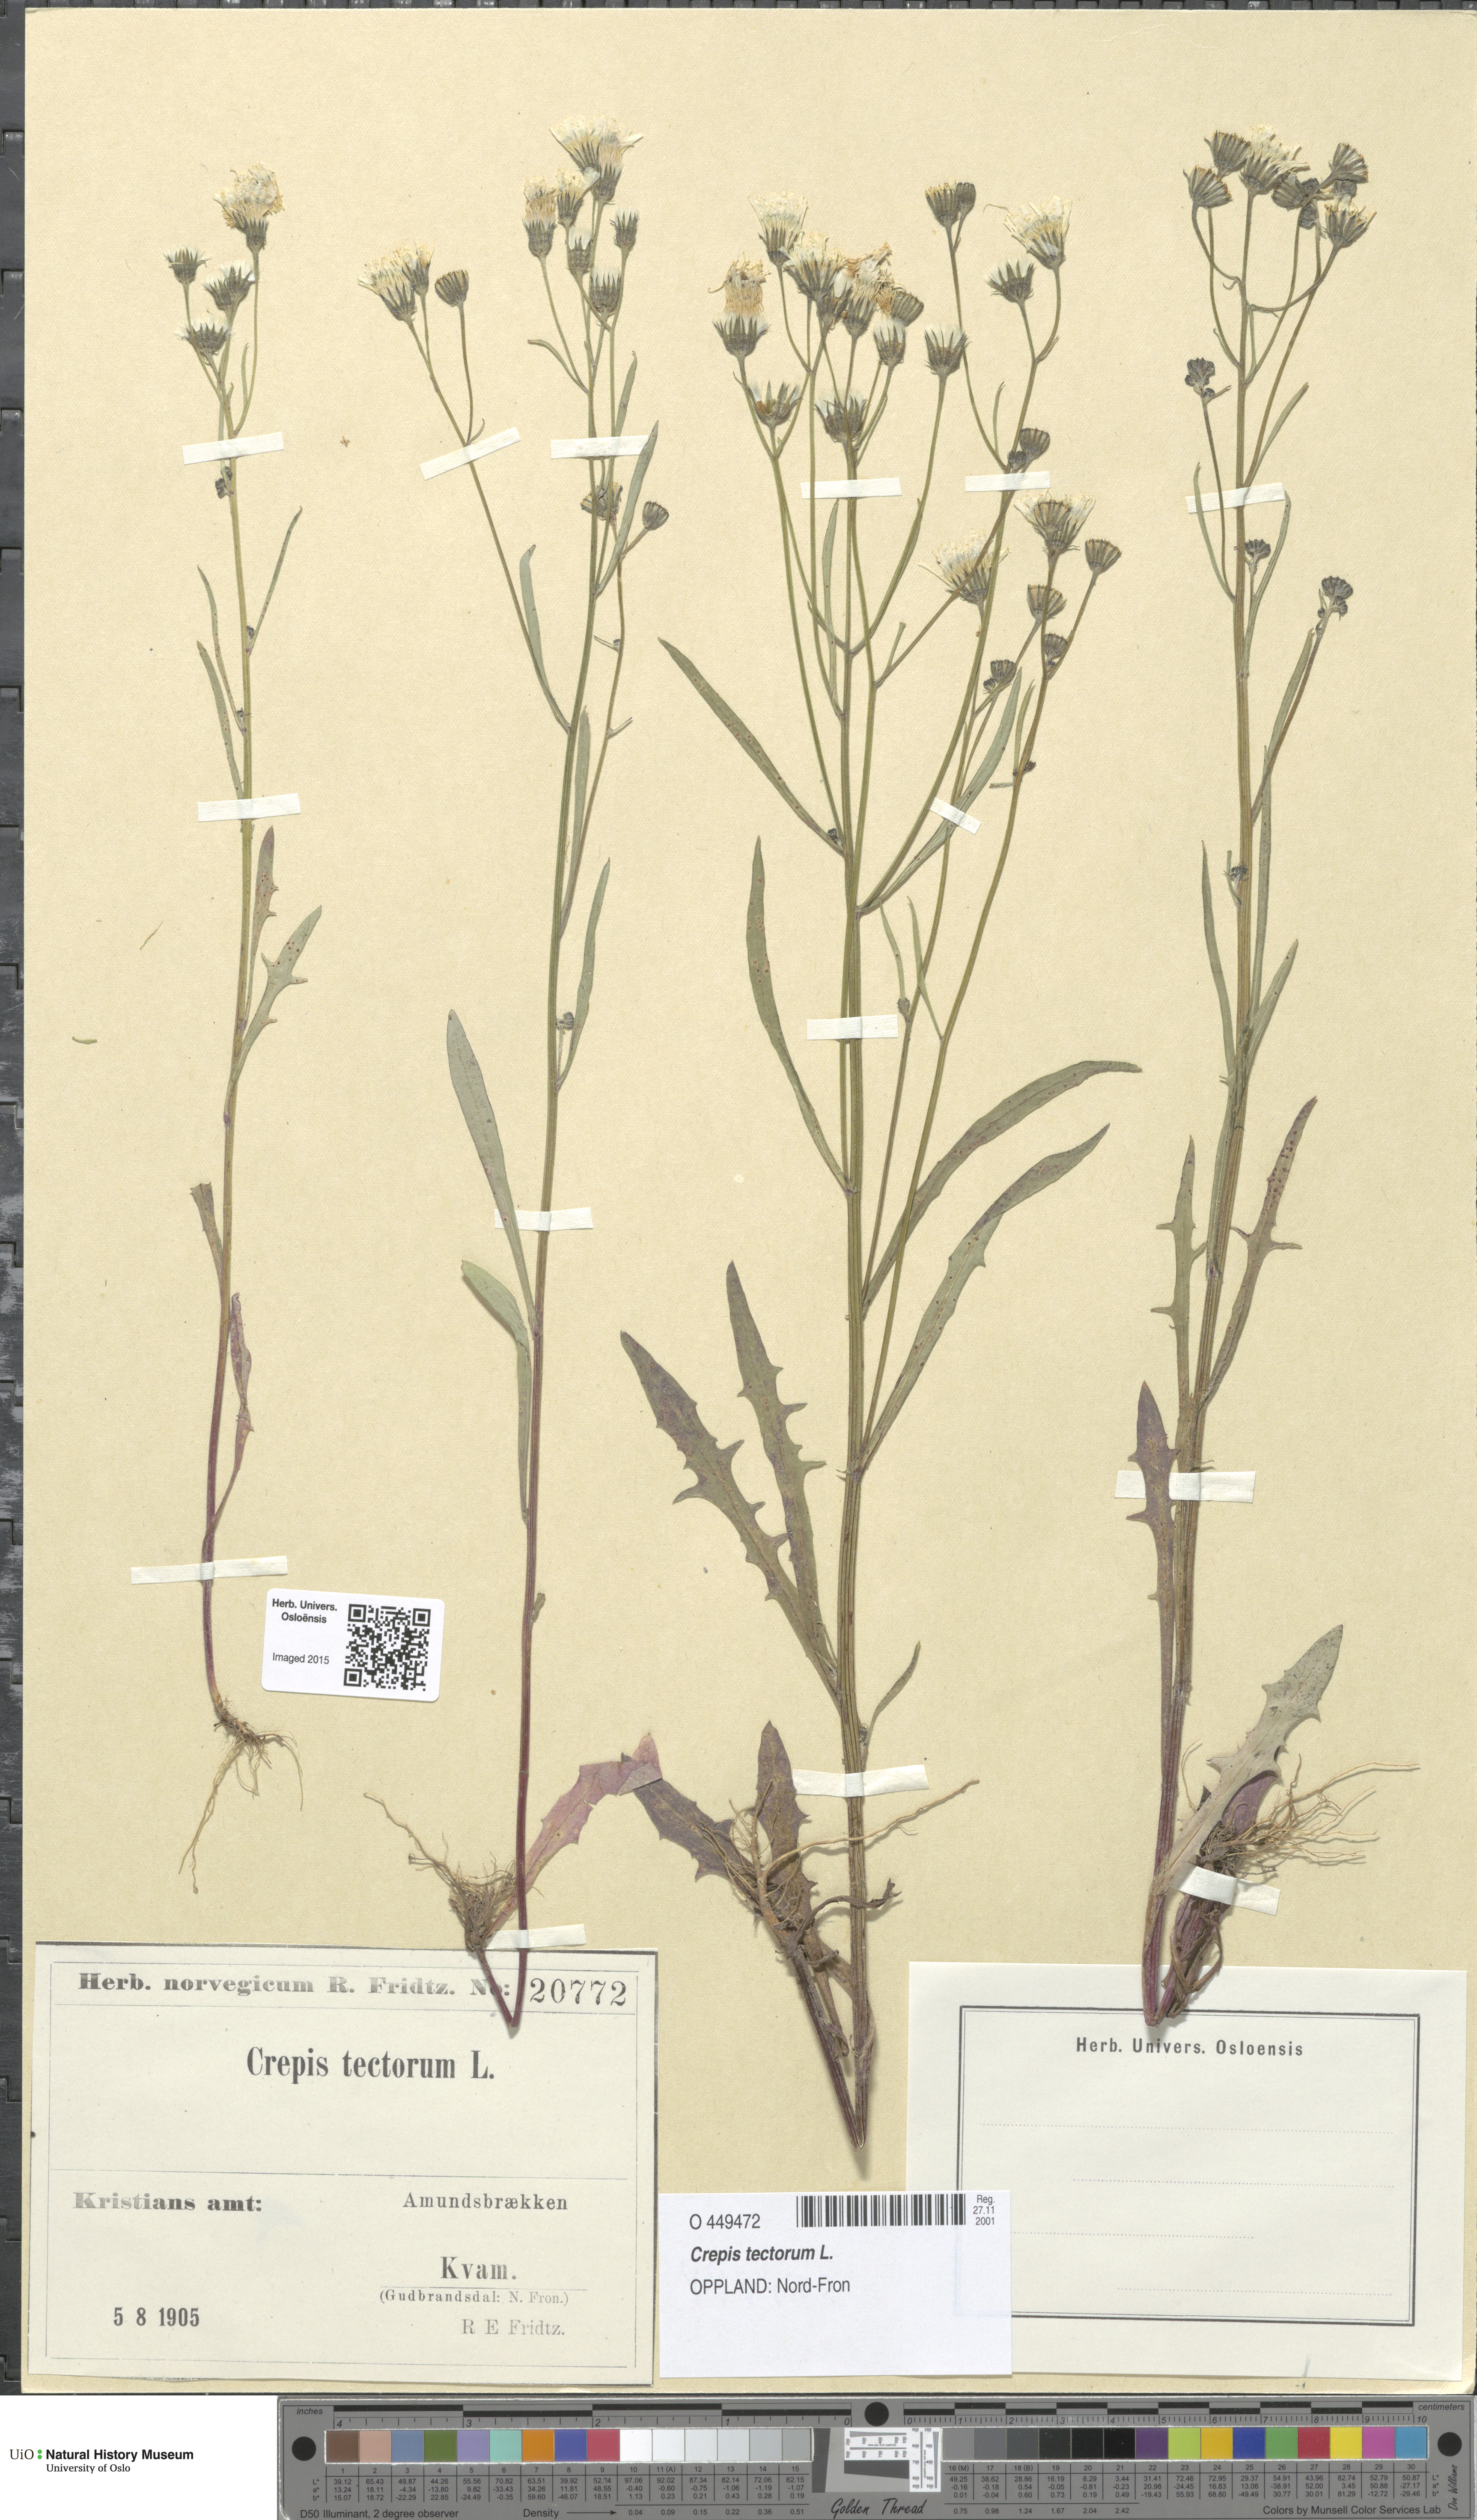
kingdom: Plantae
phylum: Tracheophyta
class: Magnoliopsida
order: Asterales
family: Asteraceae
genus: Crepis
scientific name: Crepis tectorum
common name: Narrow-leaved hawk's-beard
